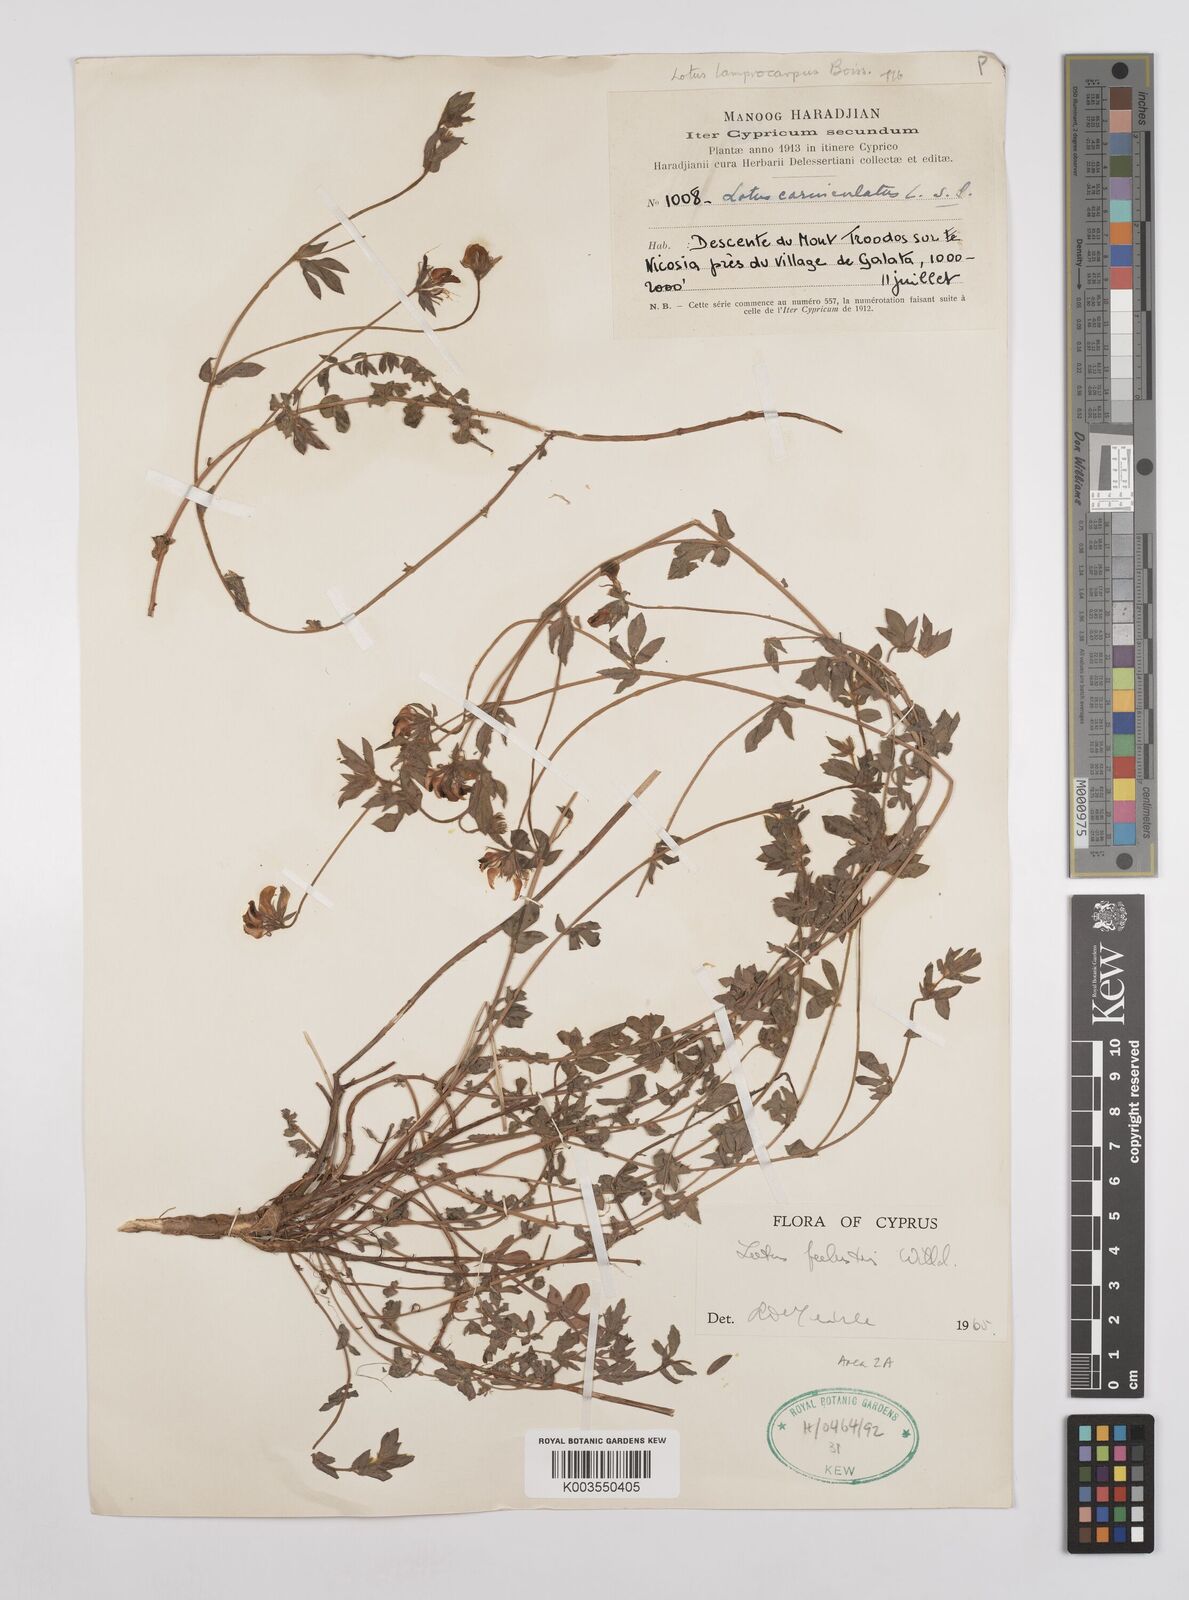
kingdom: Plantae
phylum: Tracheophyta
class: Magnoliopsida
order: Fabales
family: Fabaceae
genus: Lotus
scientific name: Lotus palustris
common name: Large birds-foot trefoil
